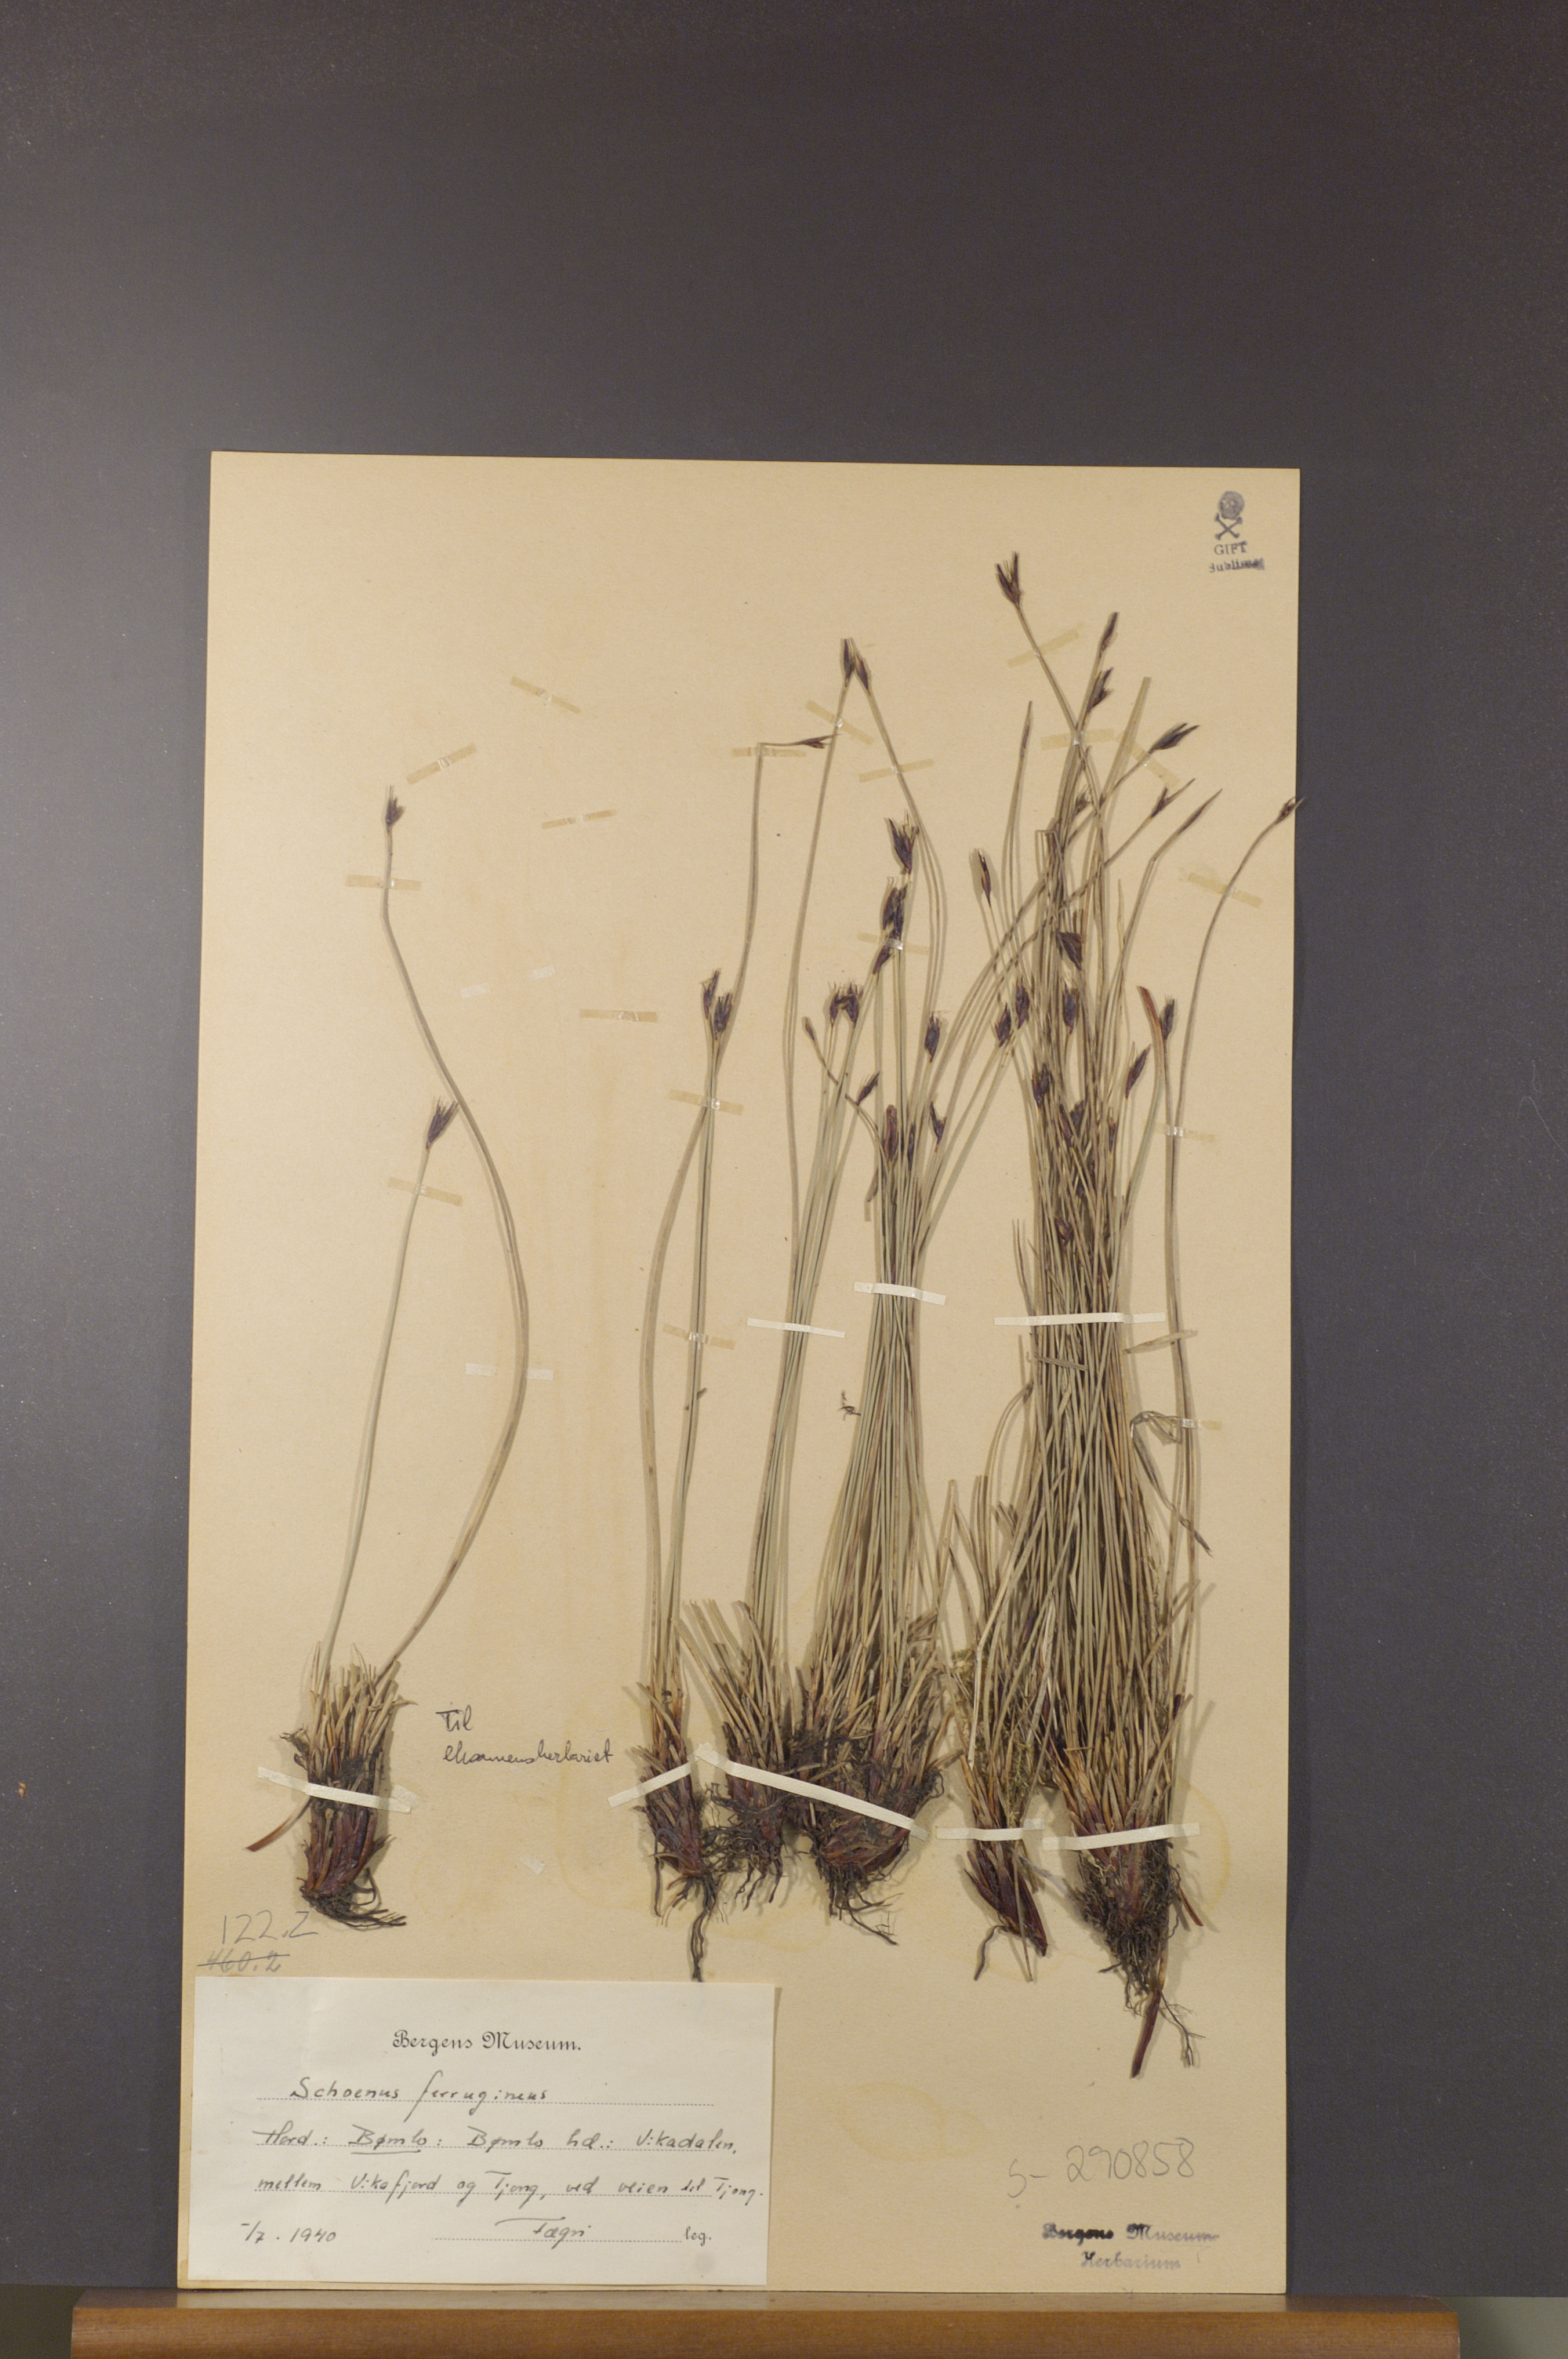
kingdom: Plantae
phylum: Tracheophyta
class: Liliopsida
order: Poales
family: Cyperaceae
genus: Schoenus
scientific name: Schoenus ferrugineus
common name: Brown bog-rush
